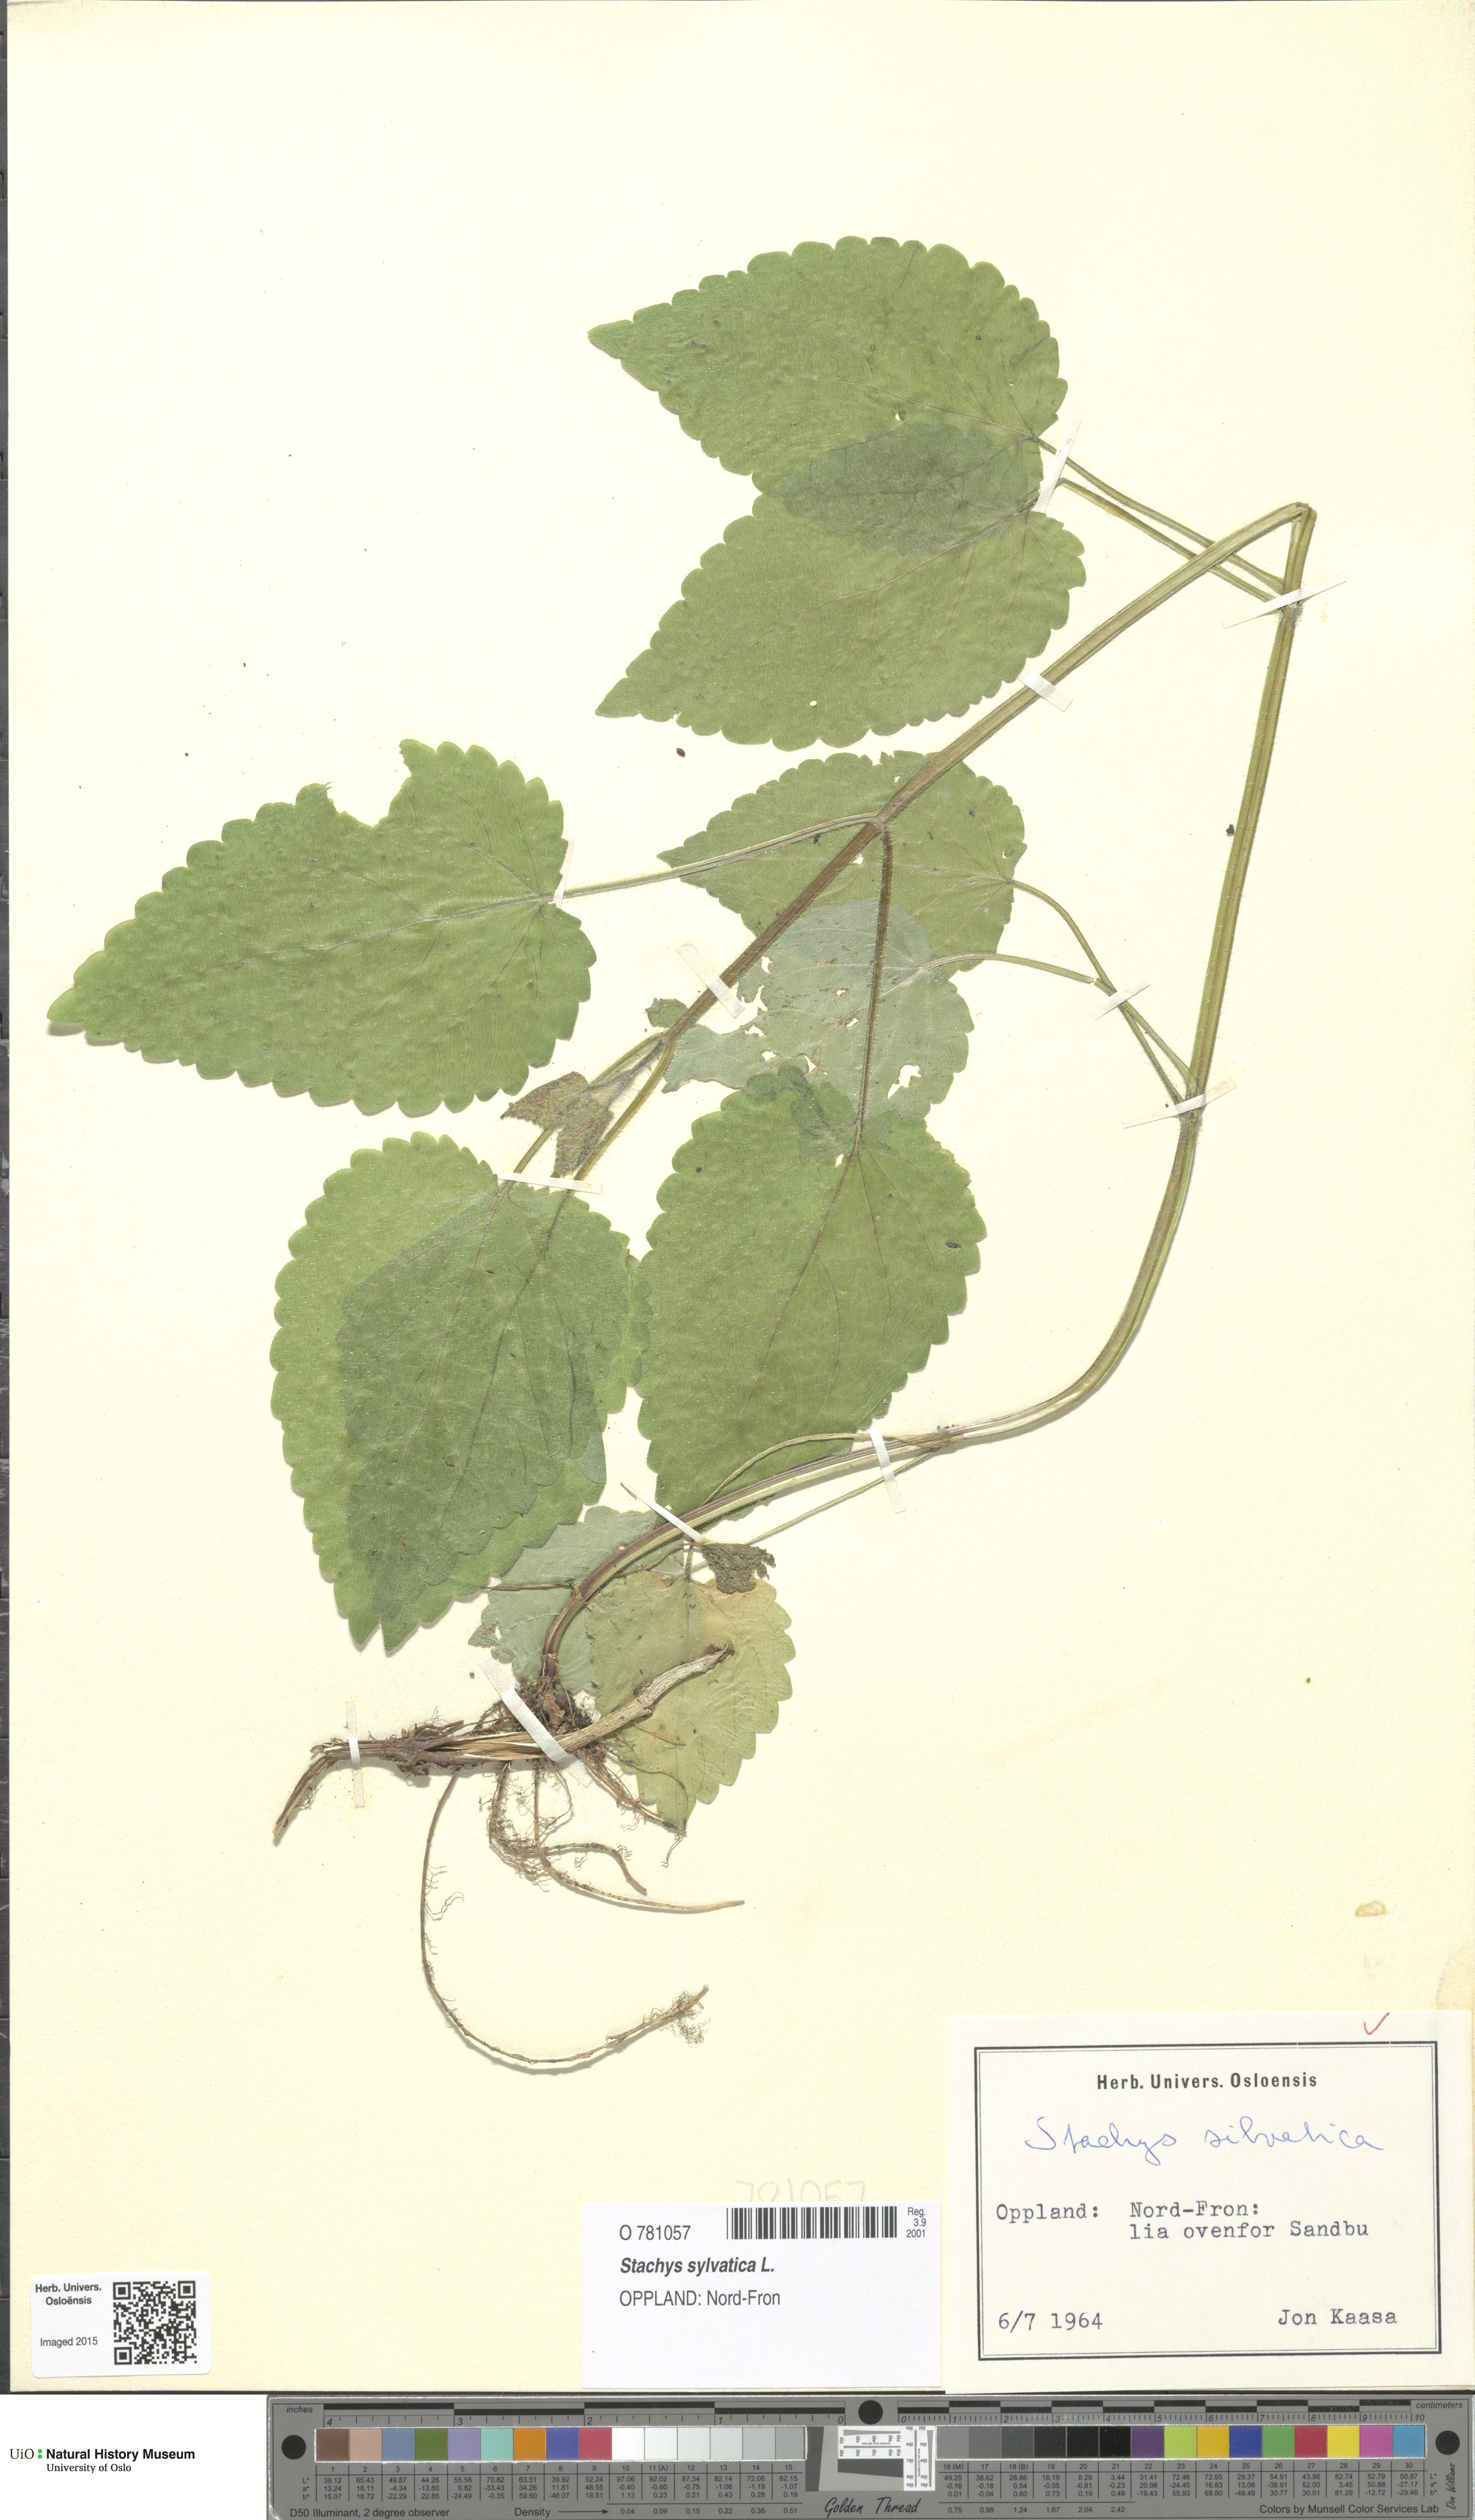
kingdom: Plantae
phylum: Tracheophyta
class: Magnoliopsida
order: Lamiales
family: Lamiaceae
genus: Stachys
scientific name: Stachys sylvatica
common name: Hedge woundwort
